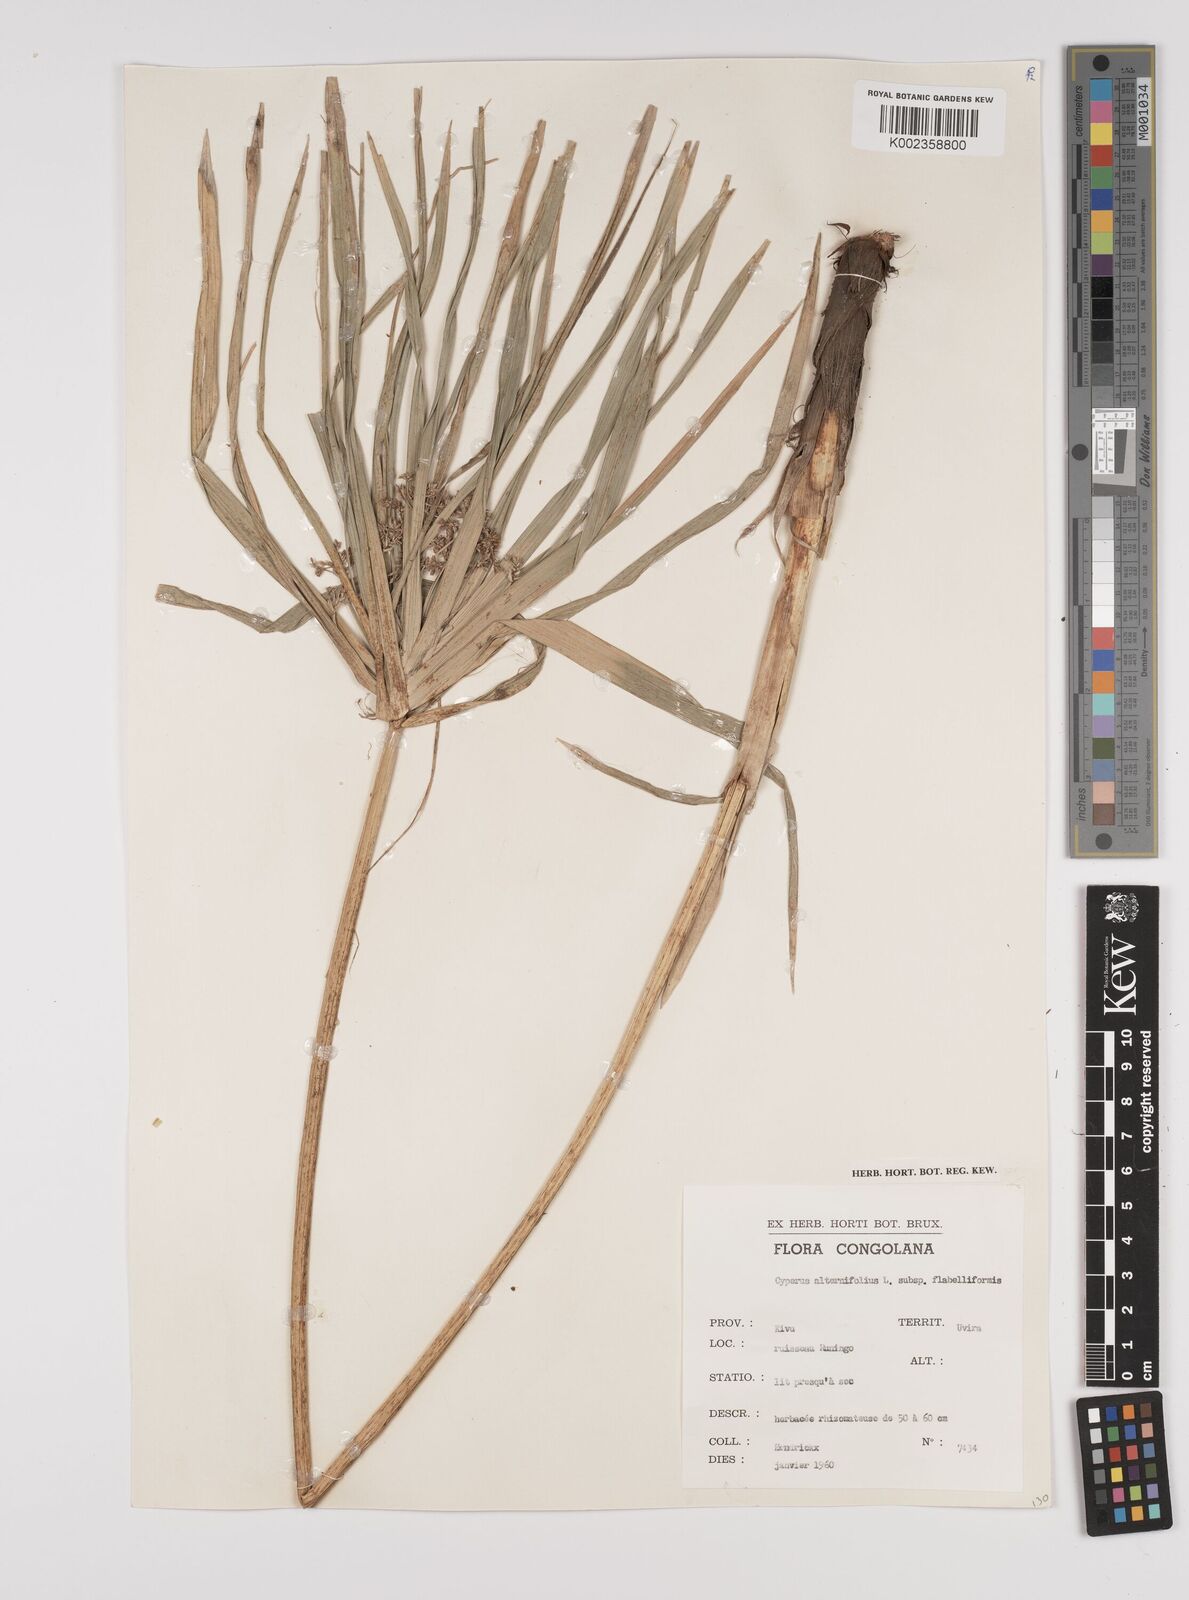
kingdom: Plantae
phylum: Tracheophyta
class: Liliopsida
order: Poales
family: Cyperaceae
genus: Cyperus
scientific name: Cyperus alternifolius
